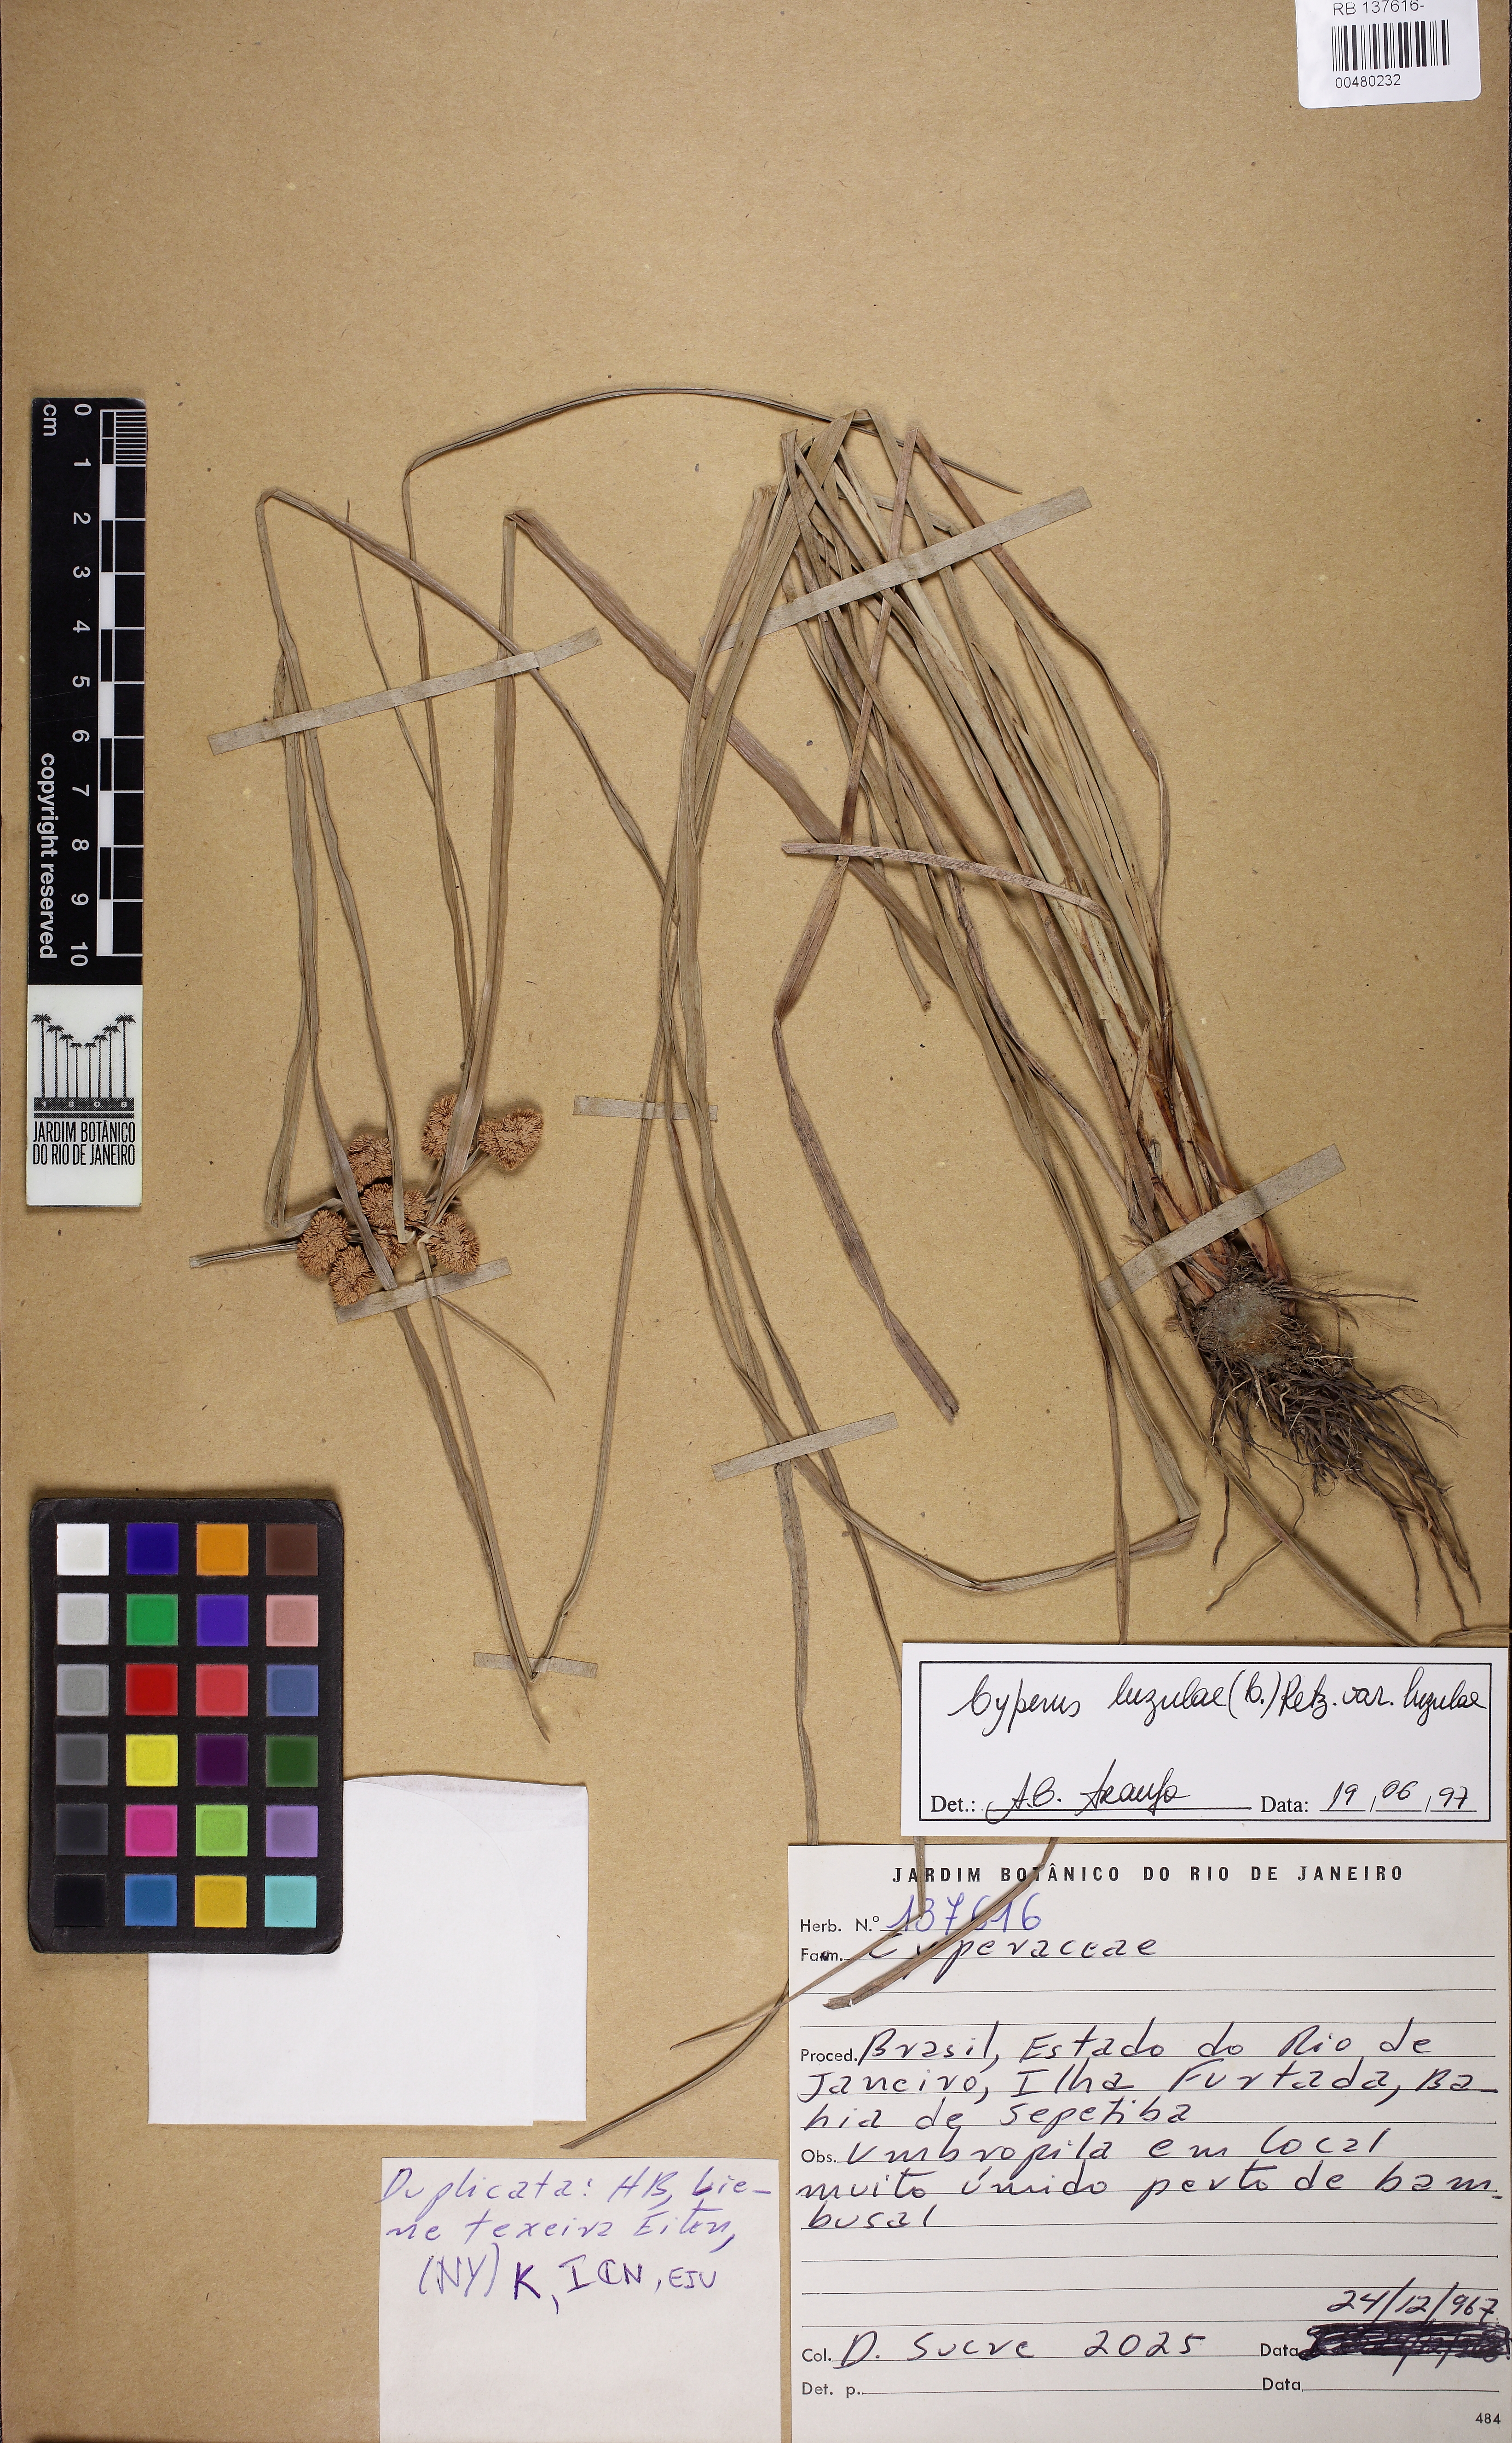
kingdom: Plantae
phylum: Tracheophyta
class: Liliopsida
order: Poales
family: Cyperaceae
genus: Cyperus
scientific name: Cyperus luzulae
